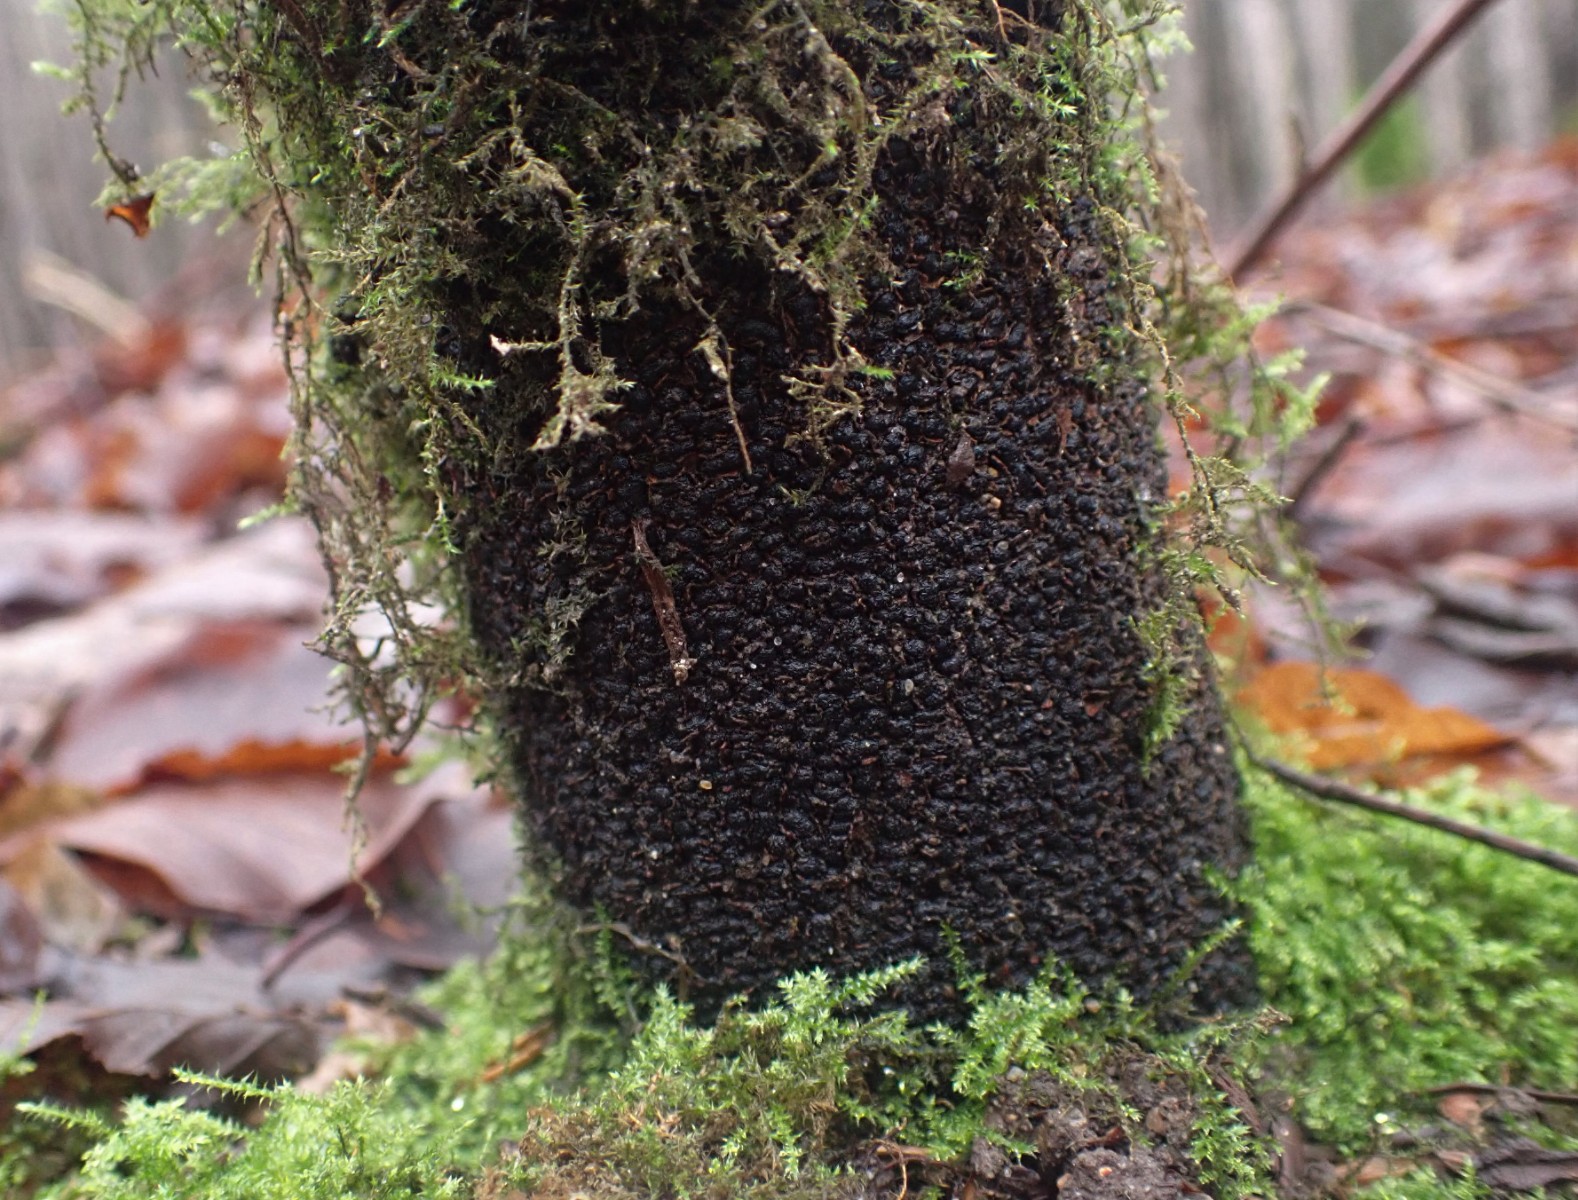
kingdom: Fungi
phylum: Ascomycota
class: Sordariomycetes
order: Xylariales
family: Melogrammataceae
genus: Melogramma
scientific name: Melogramma spiniferum
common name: bøgefod-kulhals
